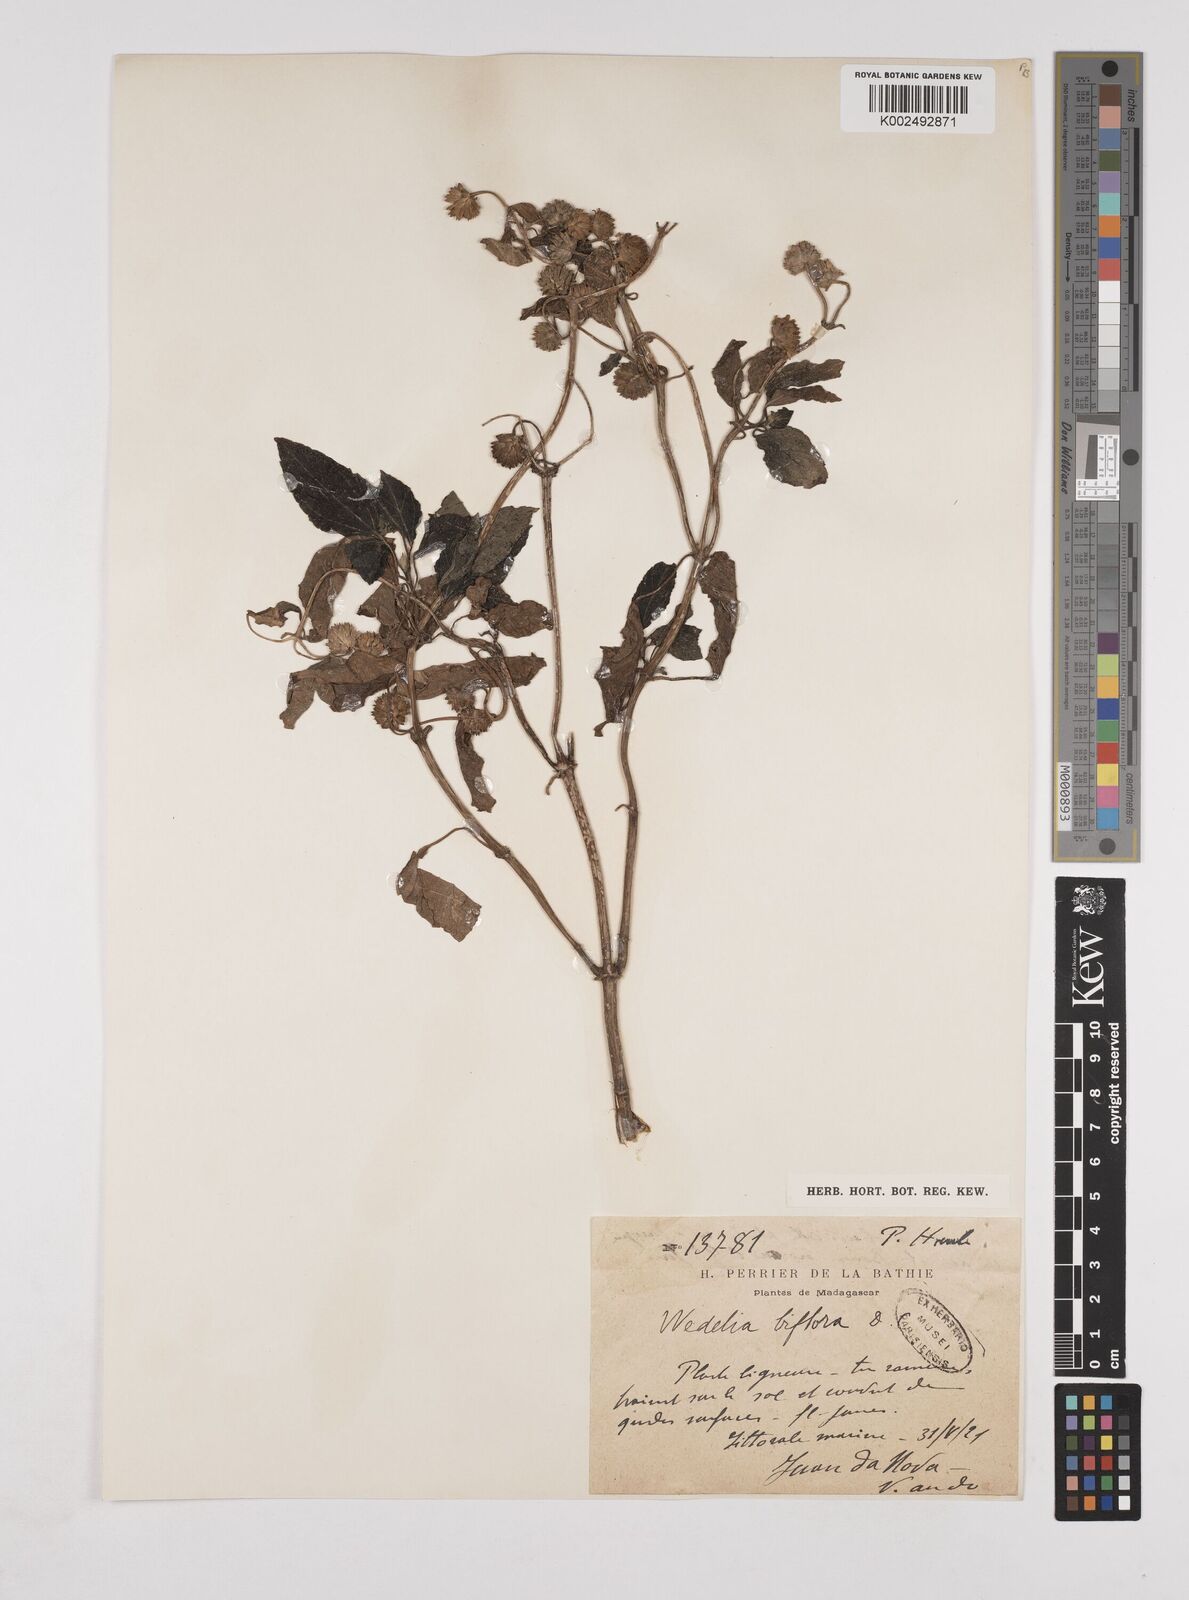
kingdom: Plantae
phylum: Tracheophyta
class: Magnoliopsida
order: Asterales
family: Asteraceae
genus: Wollastonia
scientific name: Wollastonia biflora
